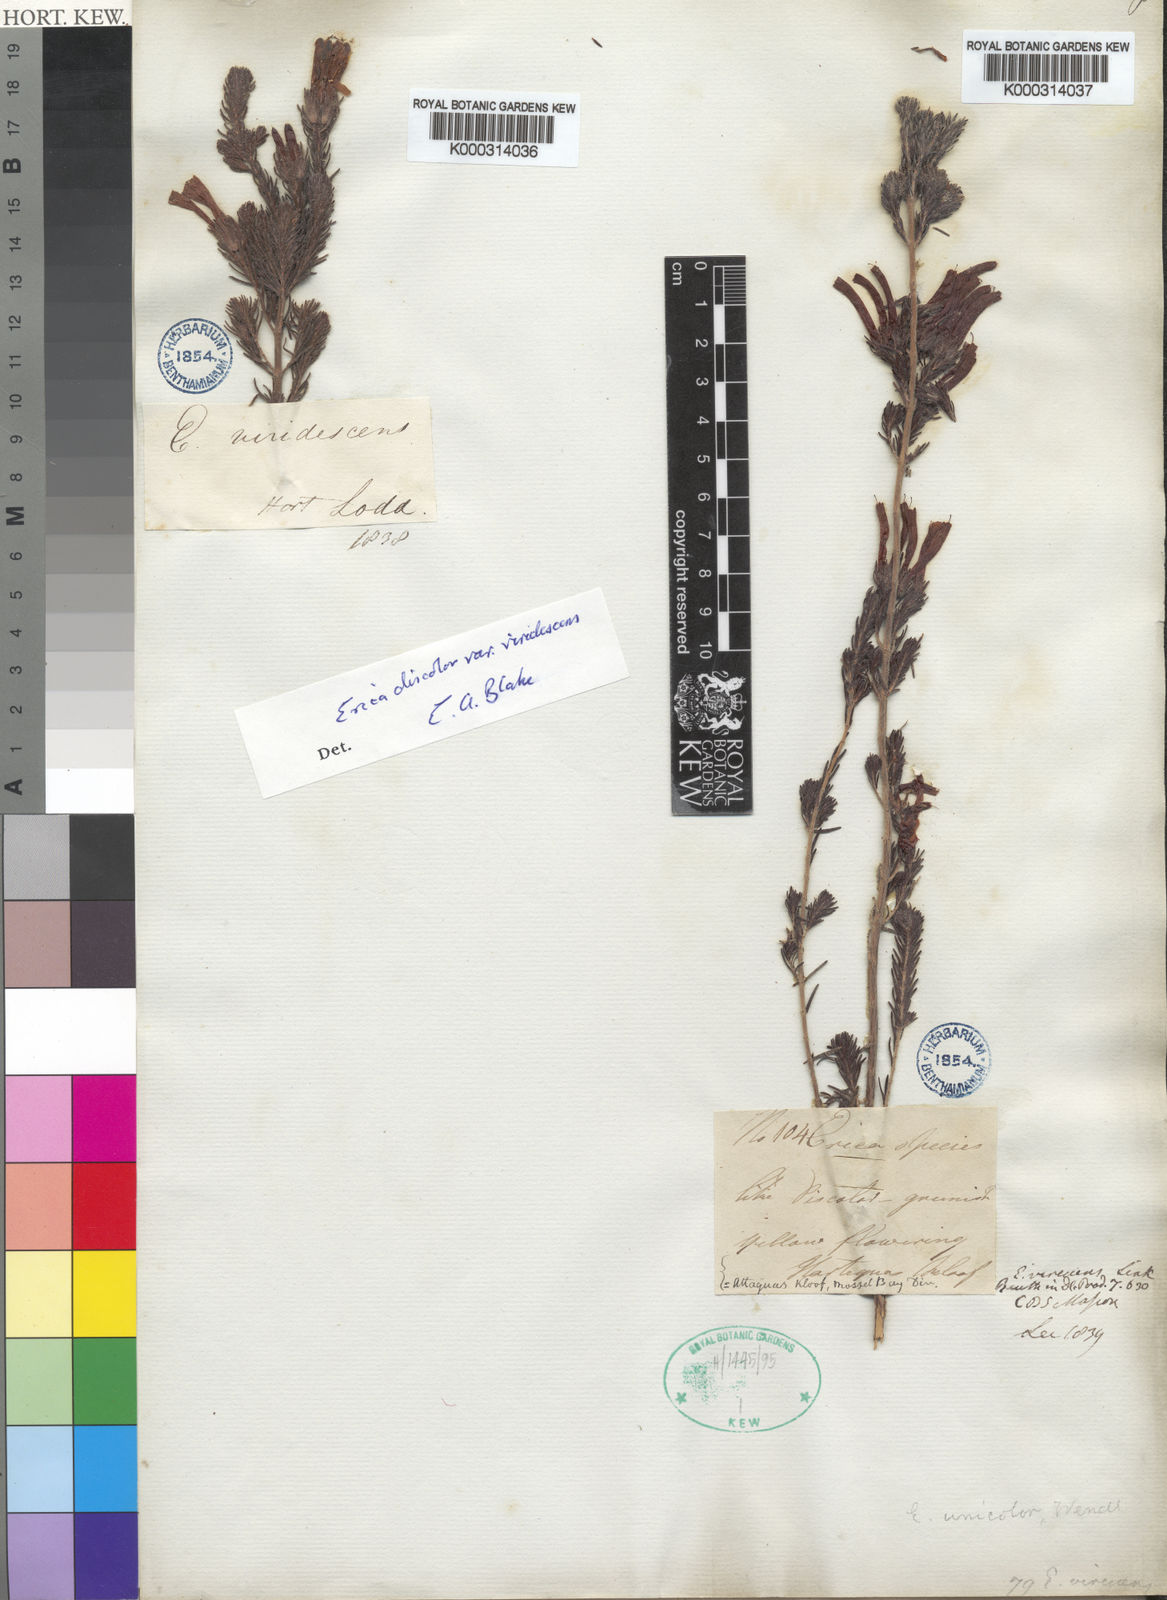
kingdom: Plantae
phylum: Tracheophyta
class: Magnoliopsida
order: Ericales
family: Ericaceae
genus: Erica
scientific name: Erica unicolor
